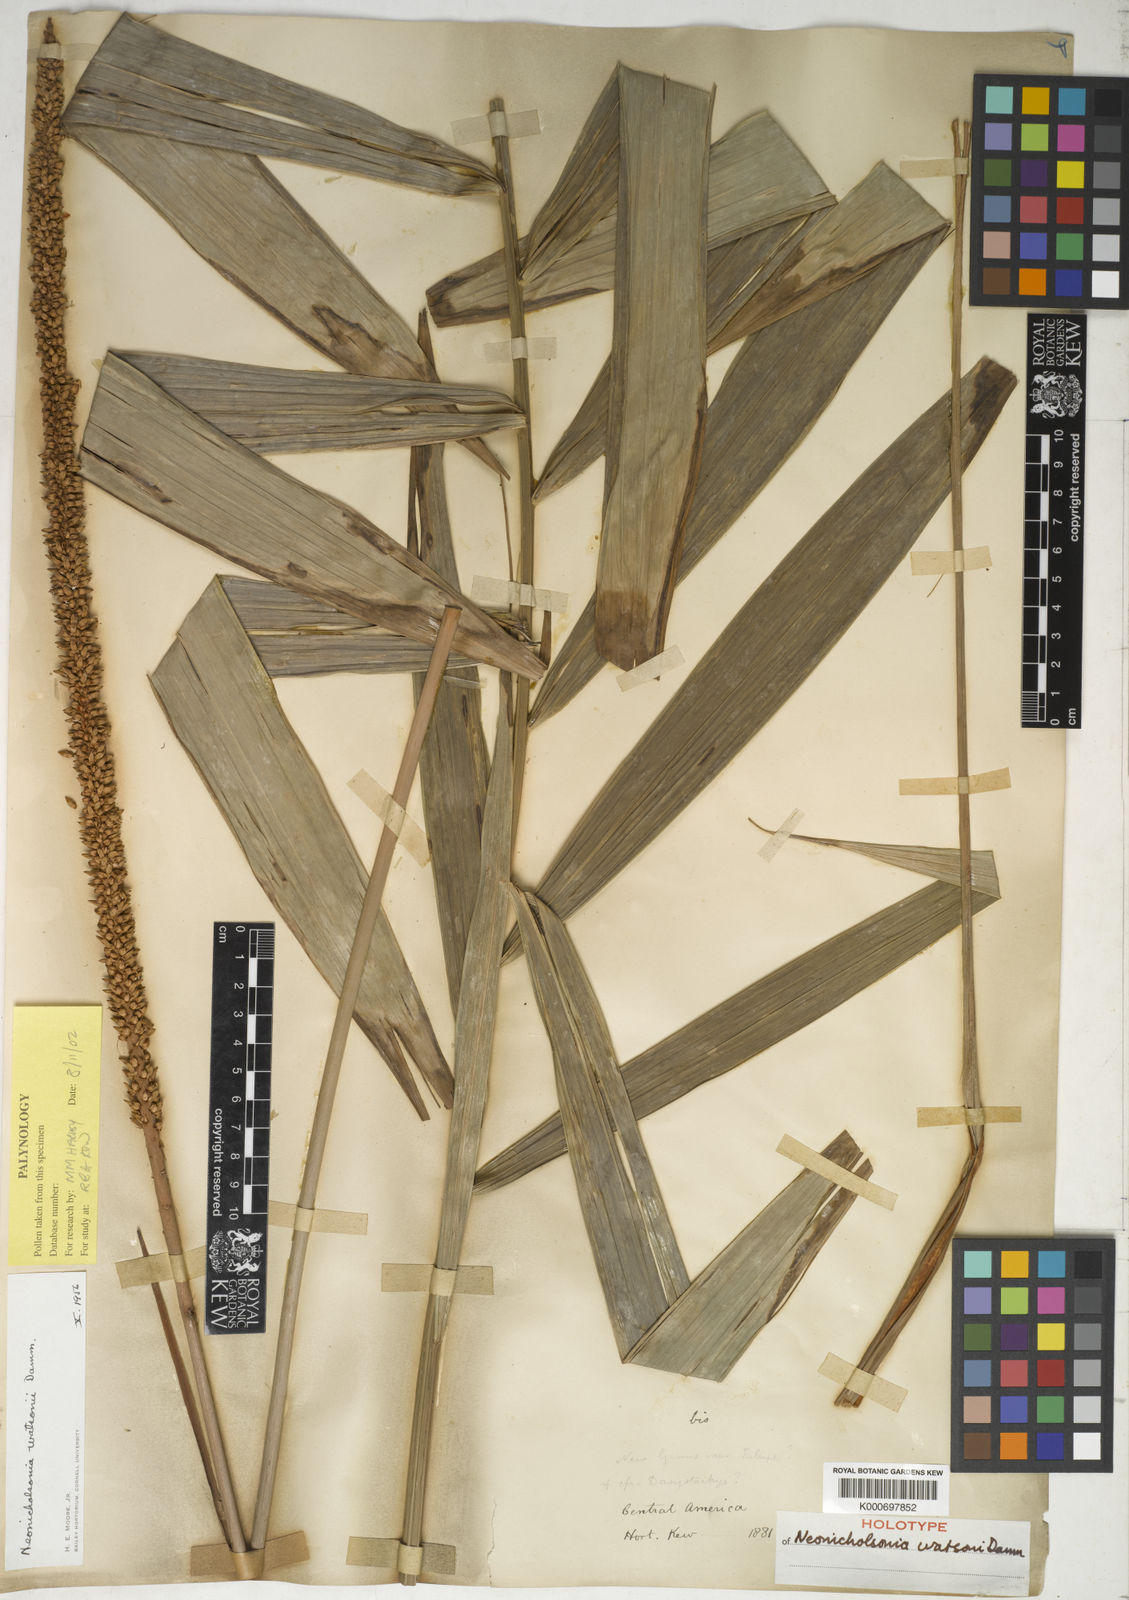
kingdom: Plantae
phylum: Tracheophyta
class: Liliopsida
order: Arecales
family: Arecaceae
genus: Neonicholsonia
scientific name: Neonicholsonia watsonii
